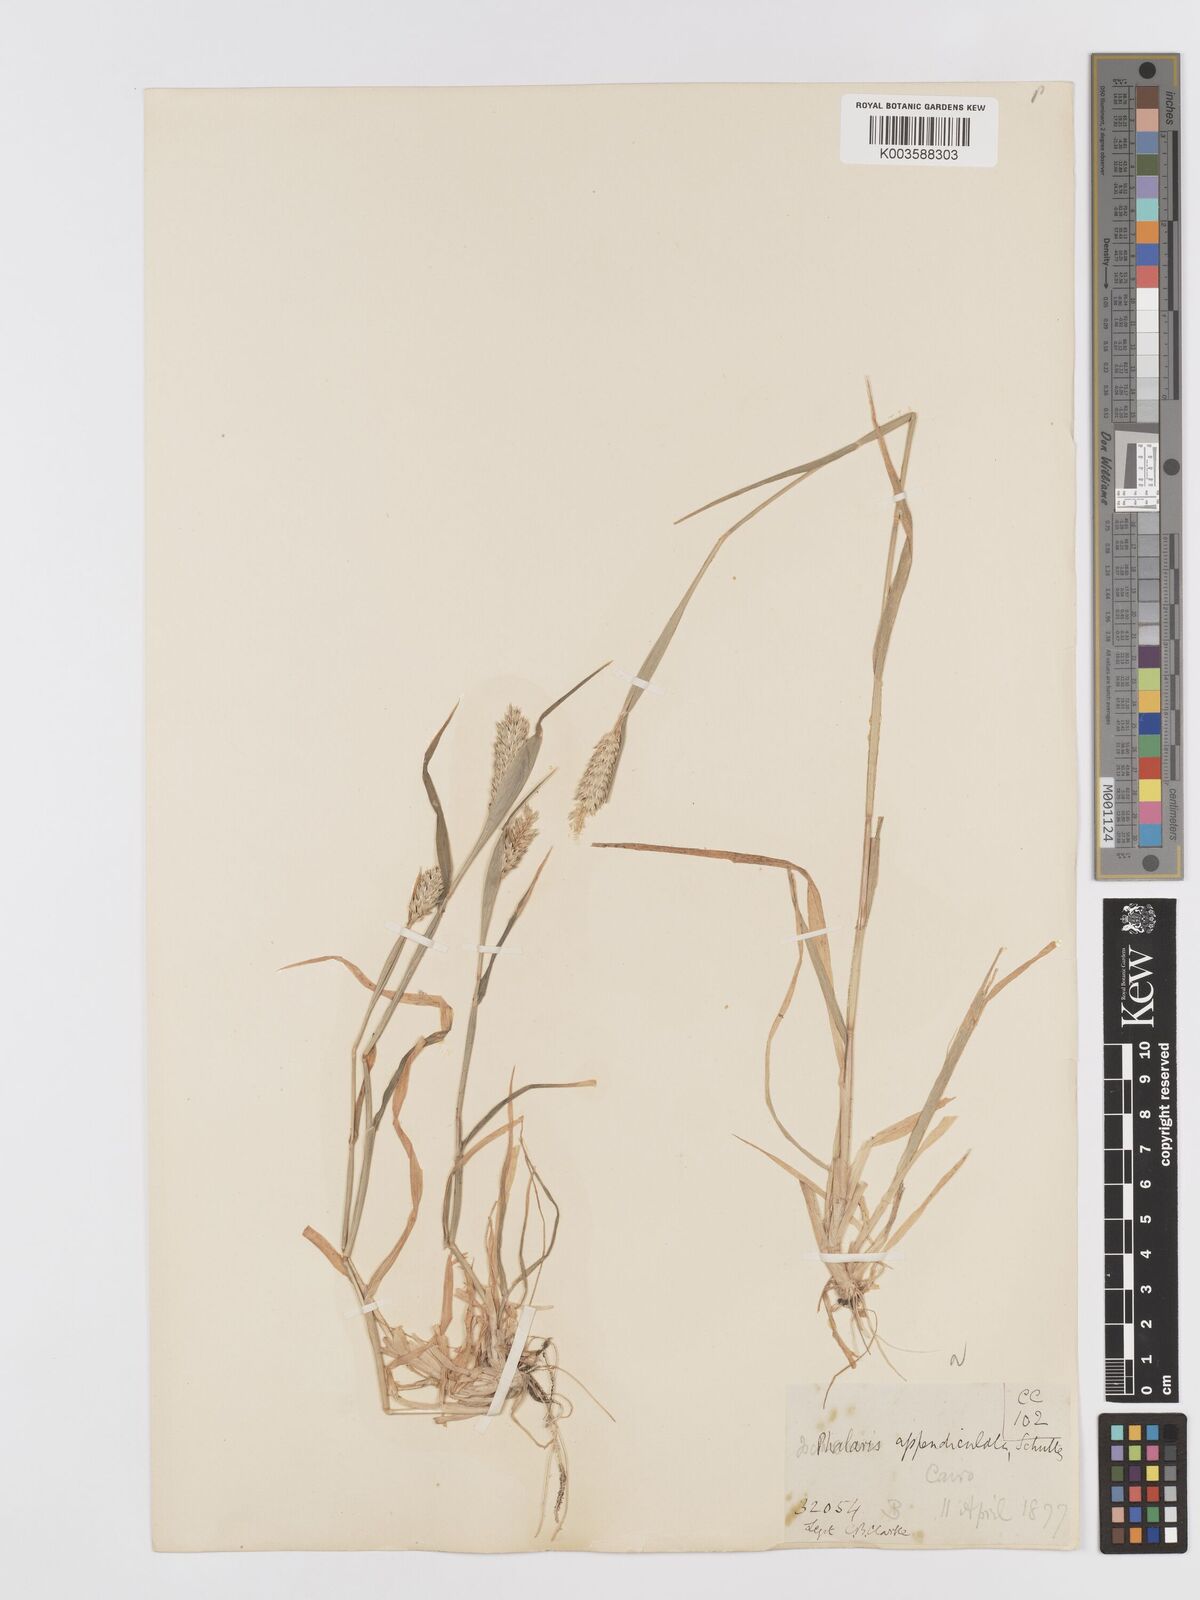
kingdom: Plantae
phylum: Tracheophyta
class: Liliopsida
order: Poales
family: Poaceae
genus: Phalaris
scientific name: Phalaris paradoxa
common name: Awned canary-grass
